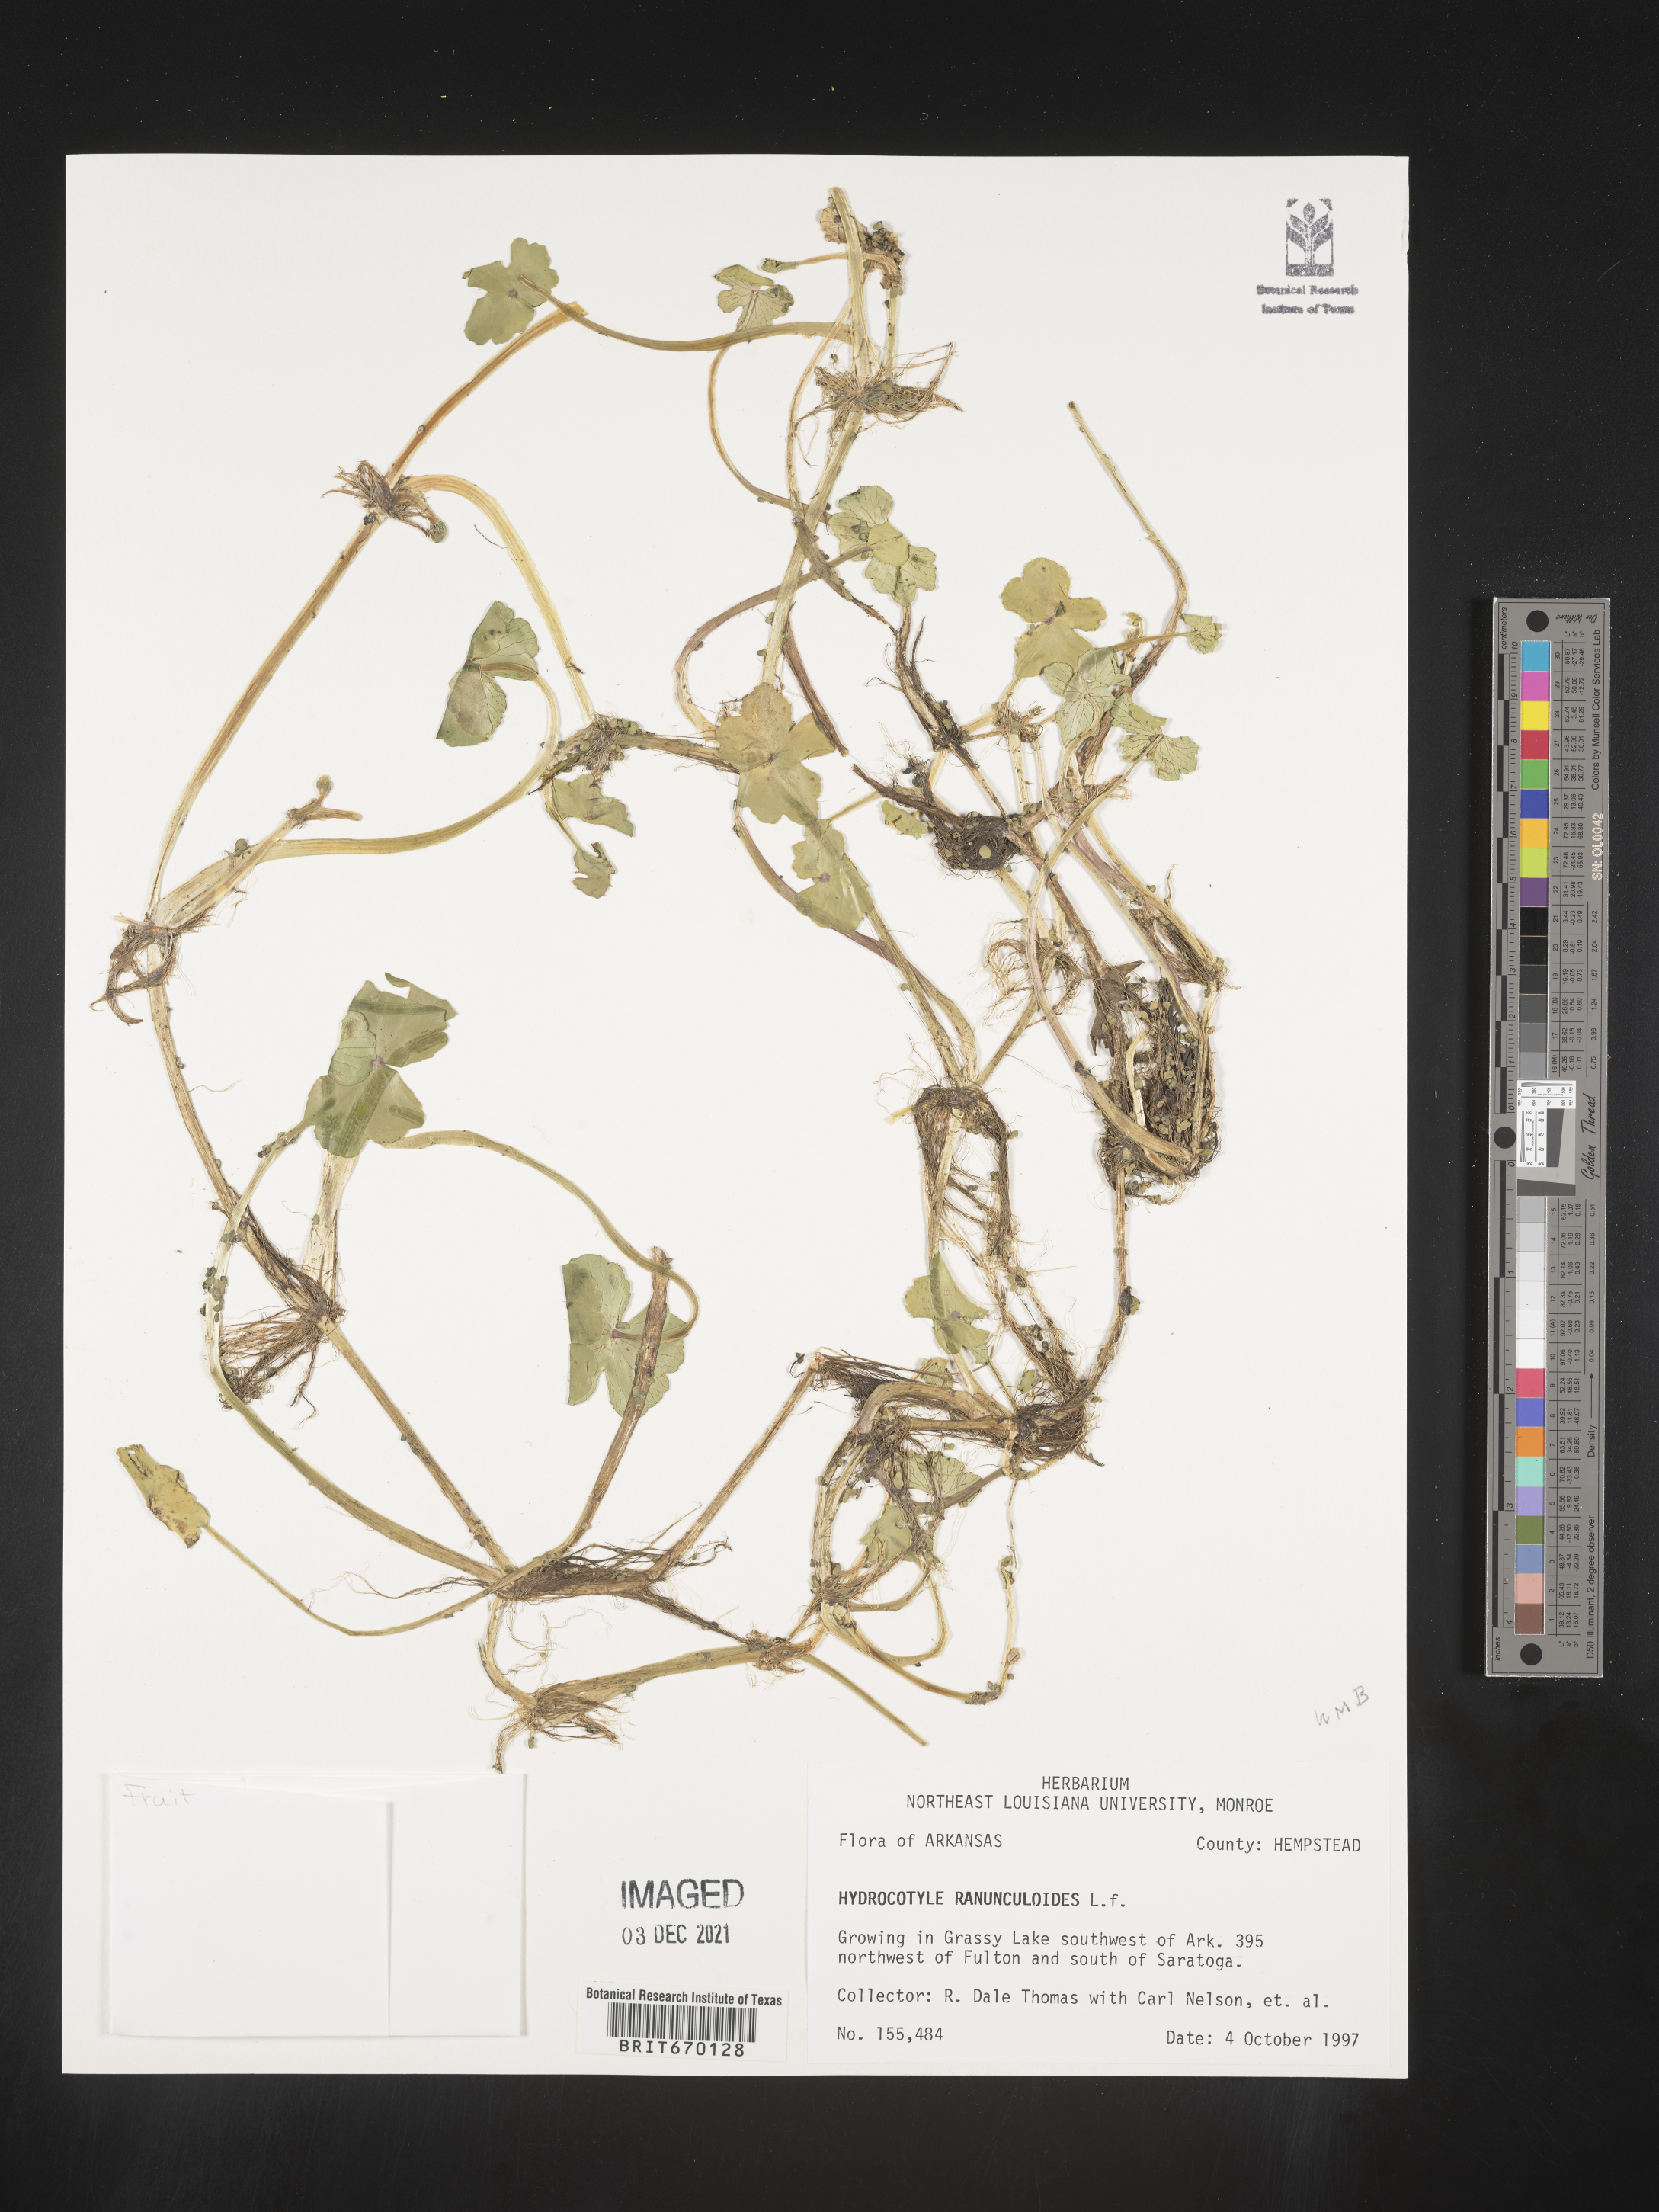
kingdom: Plantae
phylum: Tracheophyta
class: Magnoliopsida
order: Apiales
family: Araliaceae
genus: Hydrocotyle
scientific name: Hydrocotyle ranunculoides
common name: Floating pennywort
